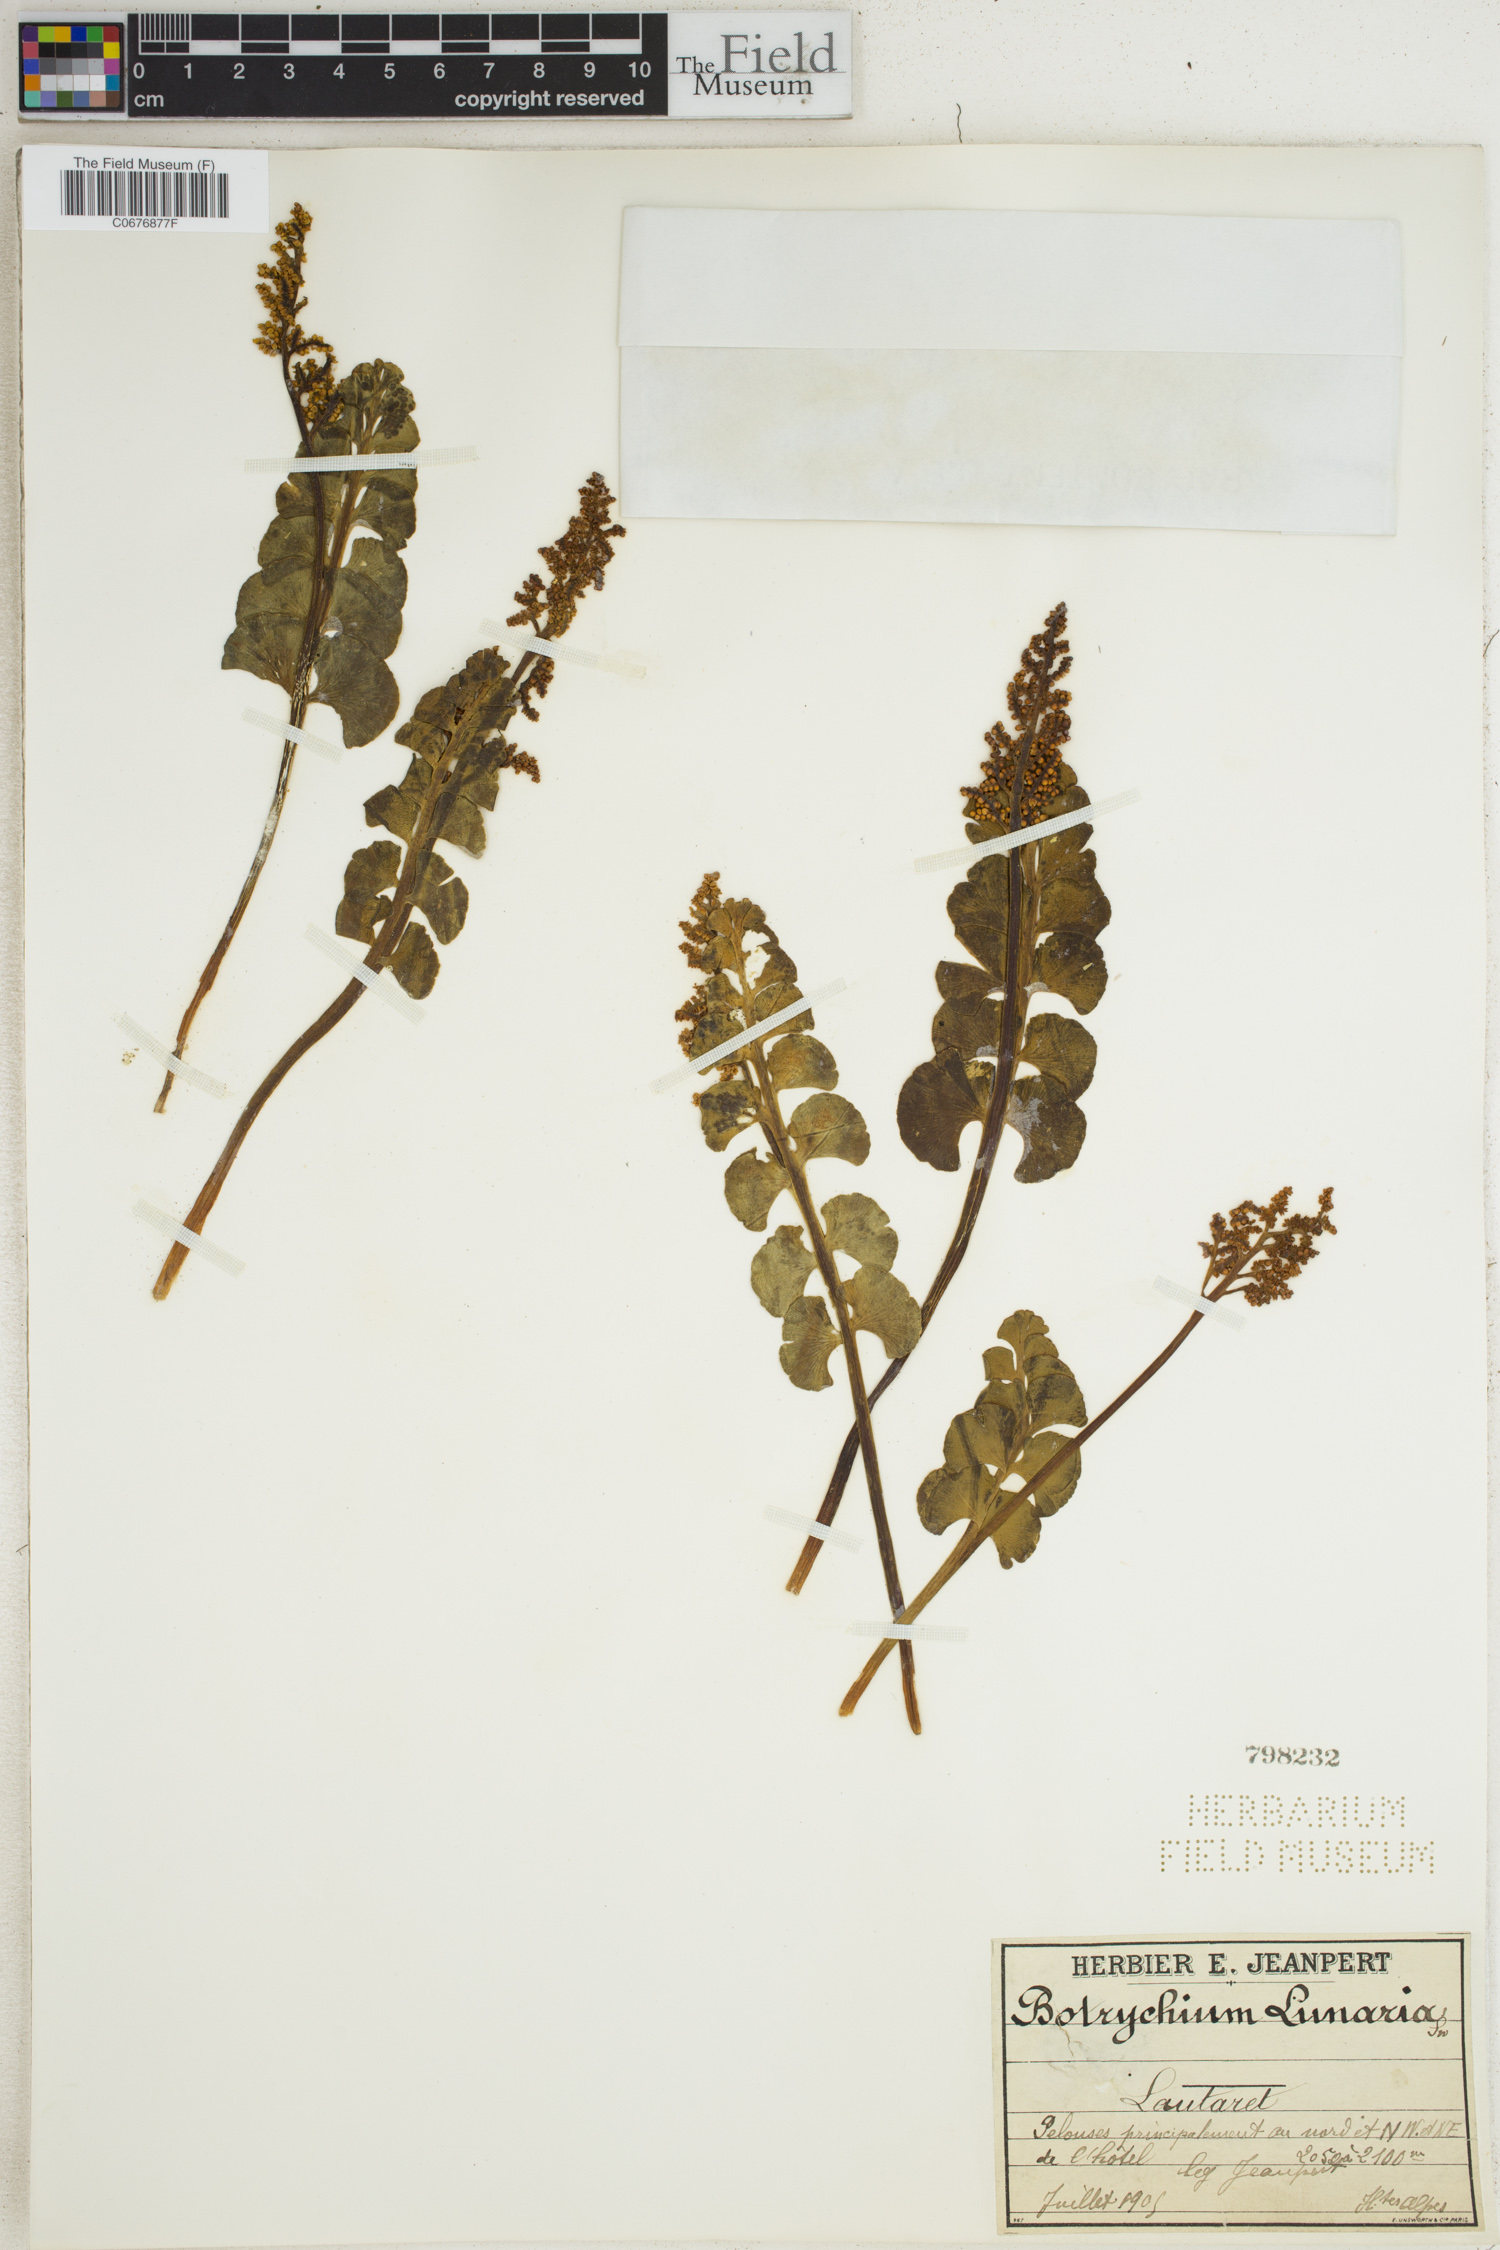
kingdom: Plantae
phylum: Tracheophyta
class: Polypodiopsida
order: Ophioglossales
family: Ophioglossaceae
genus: Botrychium
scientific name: Botrychium lunaria
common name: Moonwort
